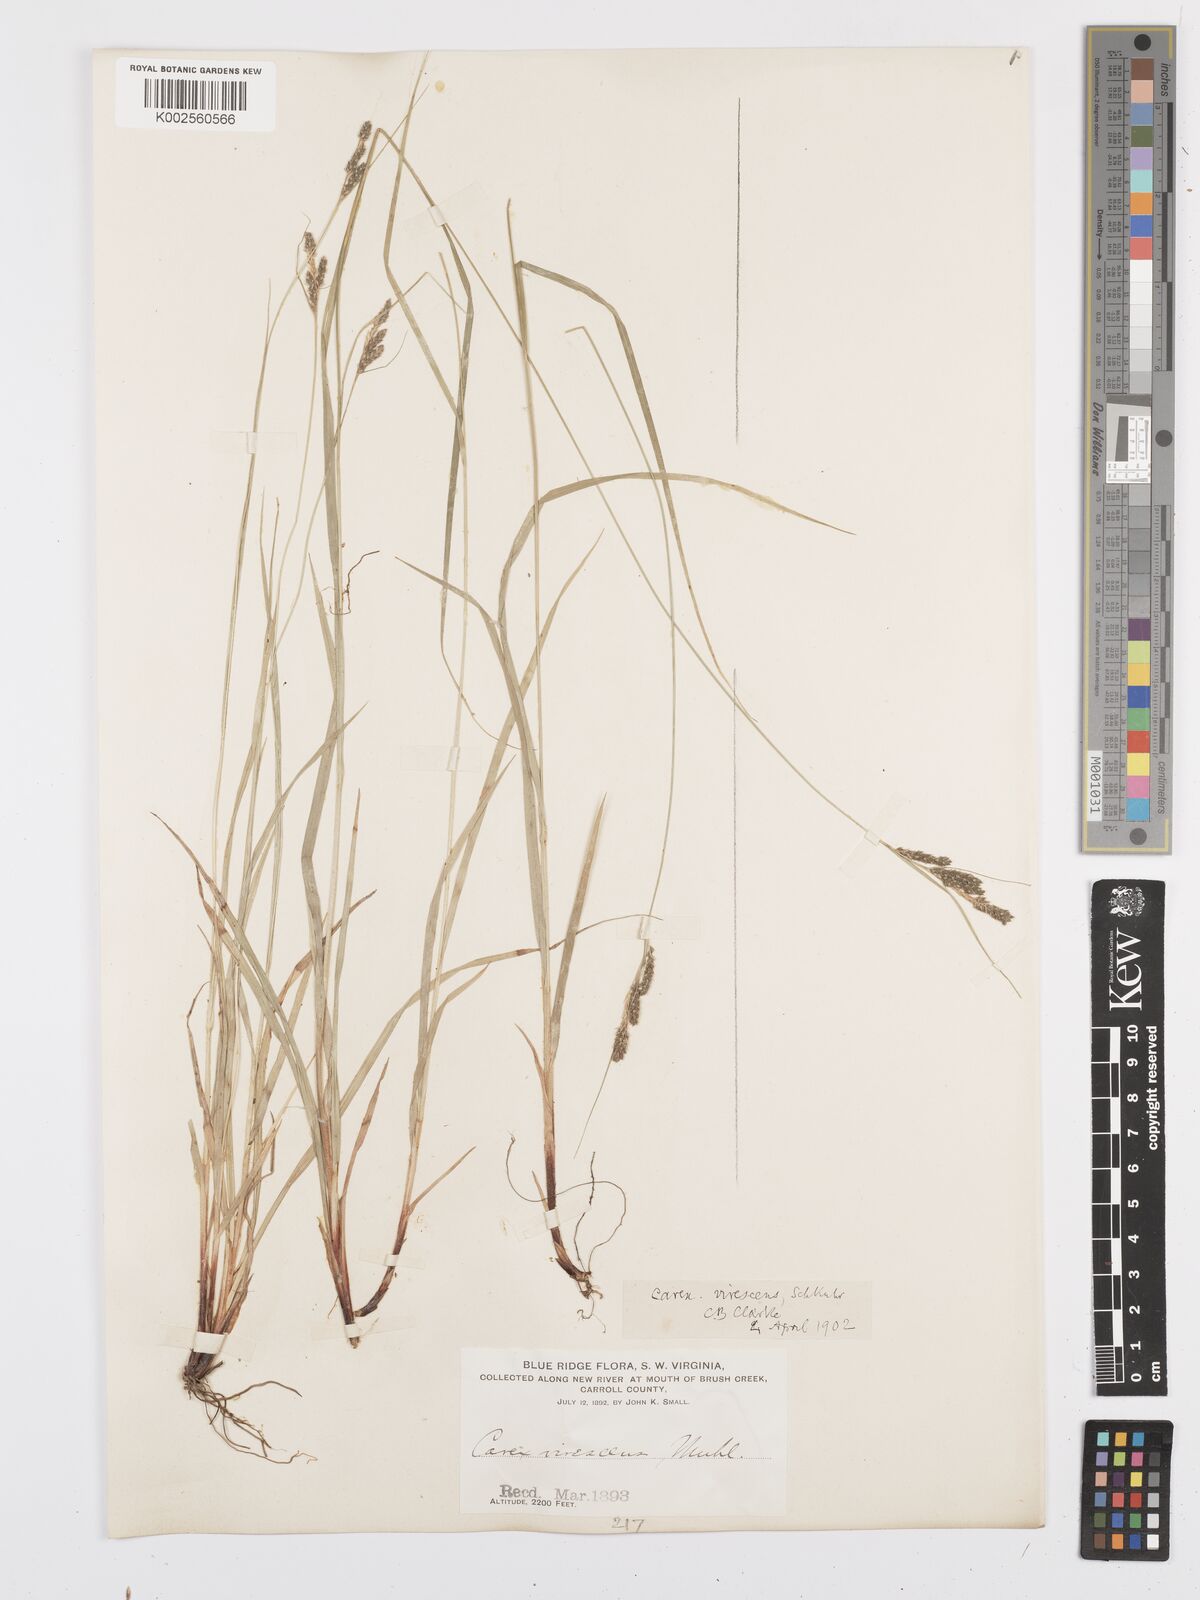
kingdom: Plantae
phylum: Tracheophyta
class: Liliopsida
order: Poales
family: Cyperaceae
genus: Carex
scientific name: Carex virescens
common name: Ribbed sedge
